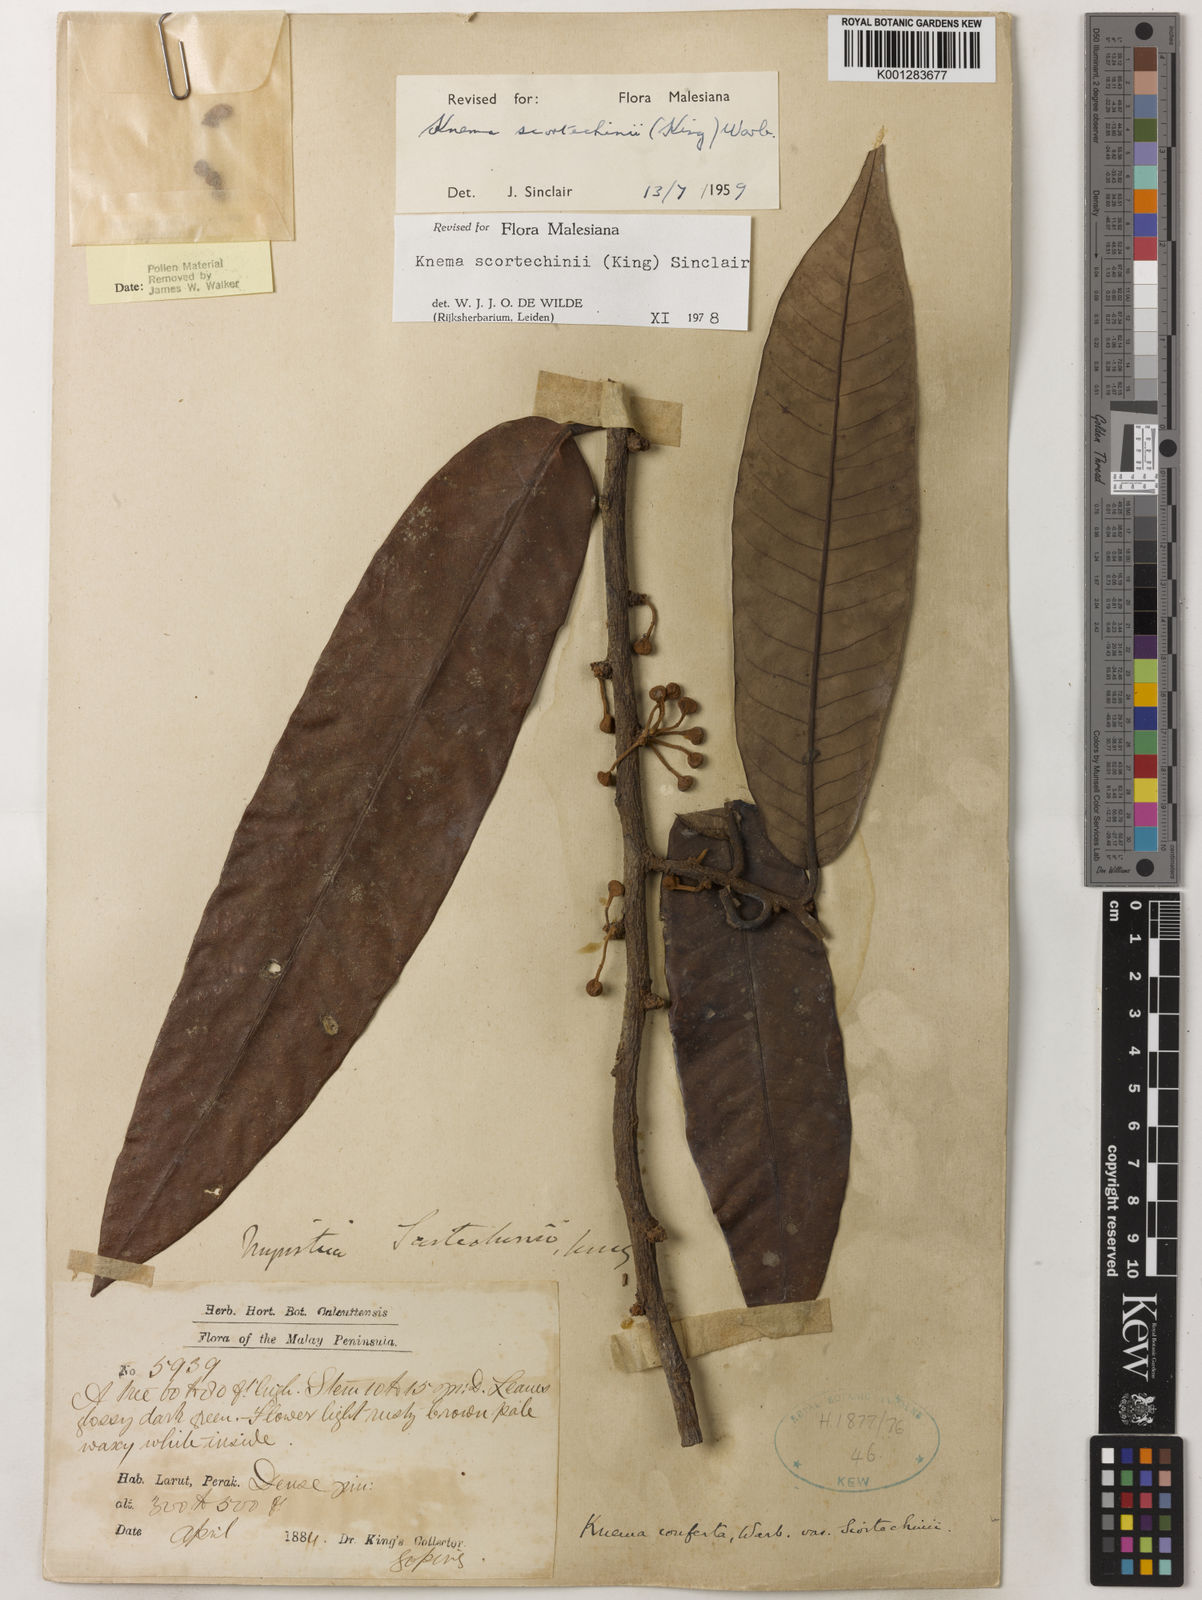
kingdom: Plantae
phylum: Tracheophyta
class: Magnoliopsida
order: Magnoliales
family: Myristicaceae
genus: Knema
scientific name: Knema scortechinii
